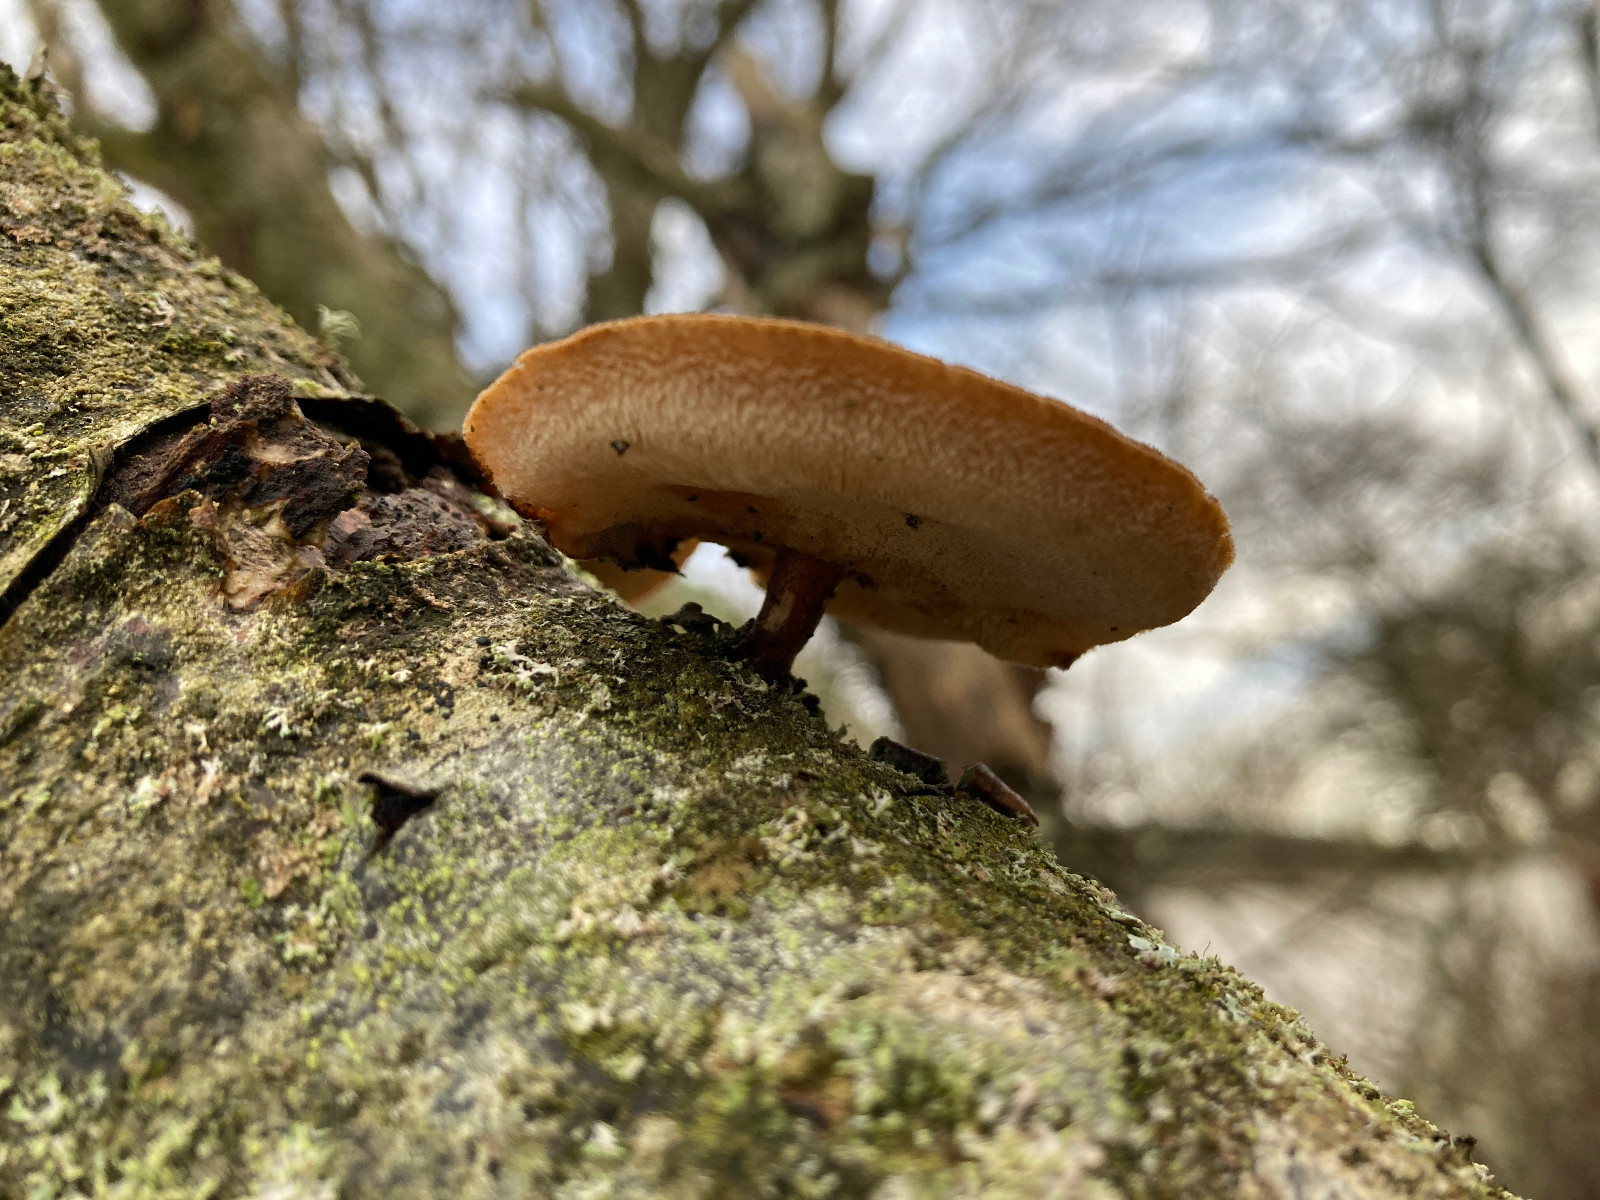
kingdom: Fungi
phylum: Basidiomycota
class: Agaricomycetes
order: Polyporales
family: Polyporaceae
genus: Lentinus
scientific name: Lentinus brumalis
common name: vinter-stilkporesvamp
